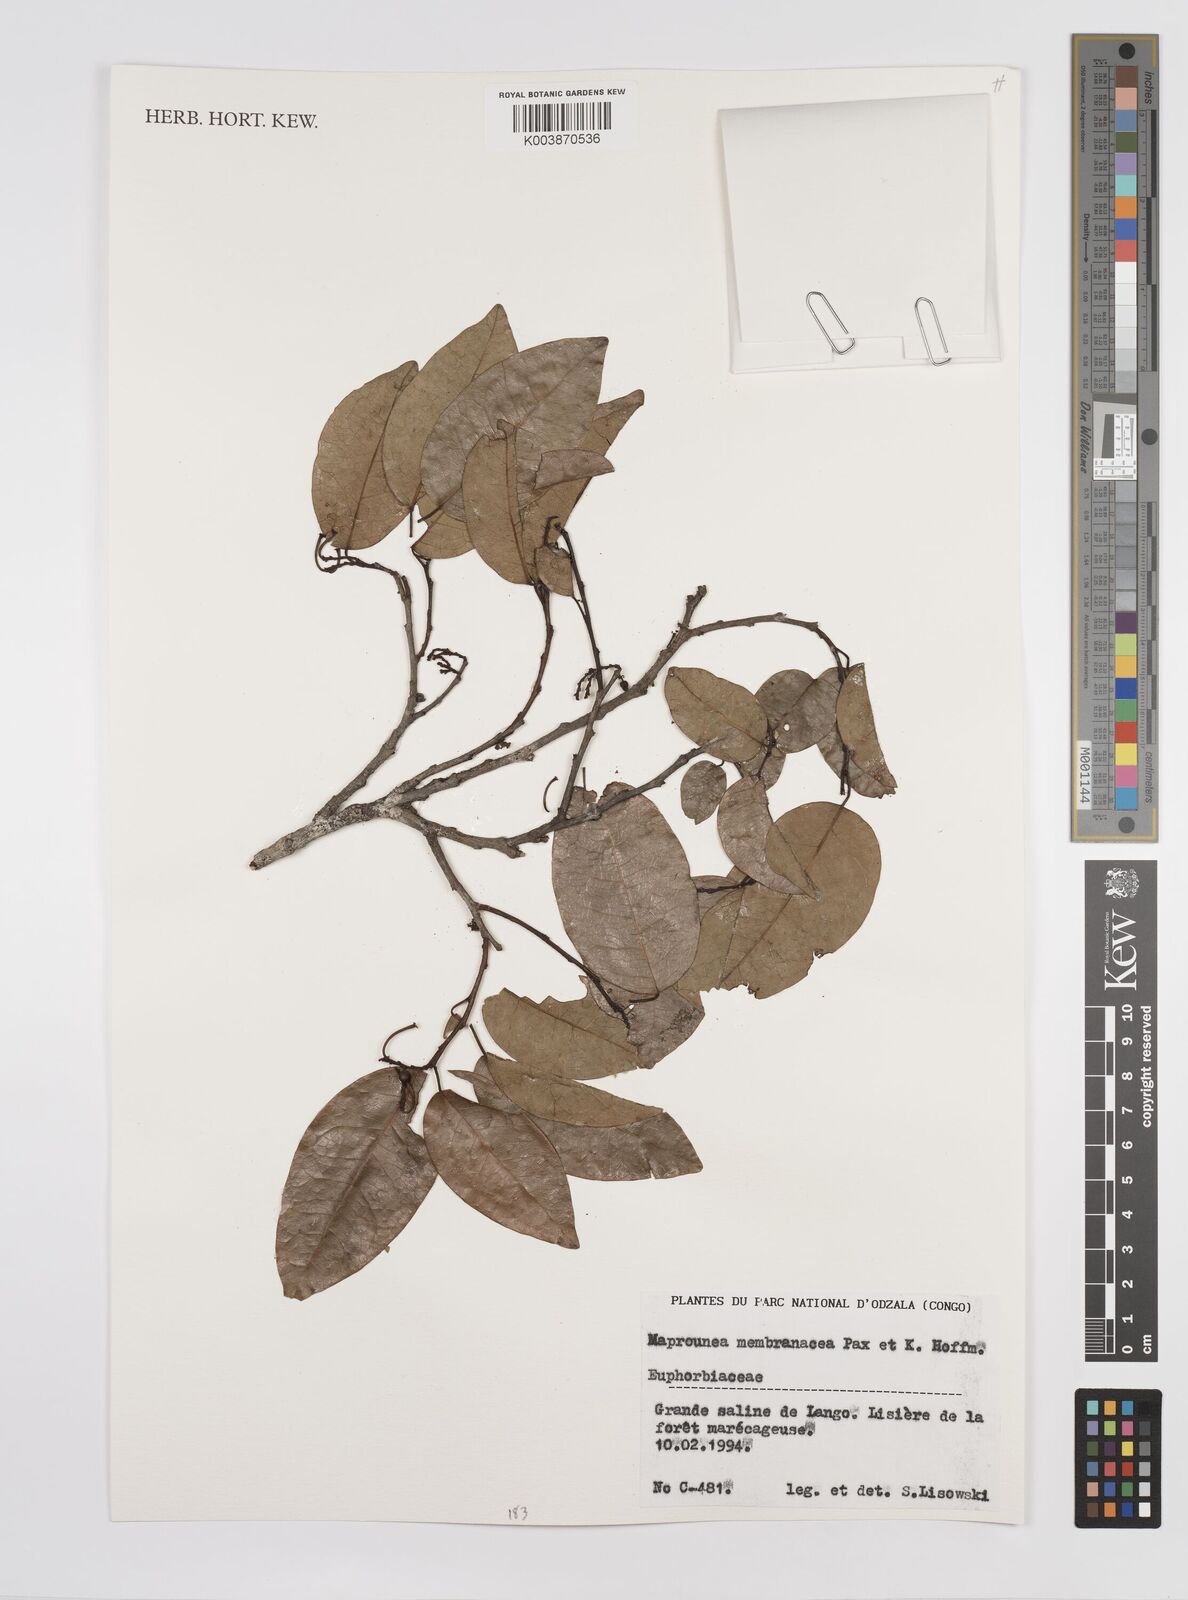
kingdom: Plantae
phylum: Tracheophyta
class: Magnoliopsida
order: Malpighiales
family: Euphorbiaceae
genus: Maprounea
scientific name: Maprounea membranacea
